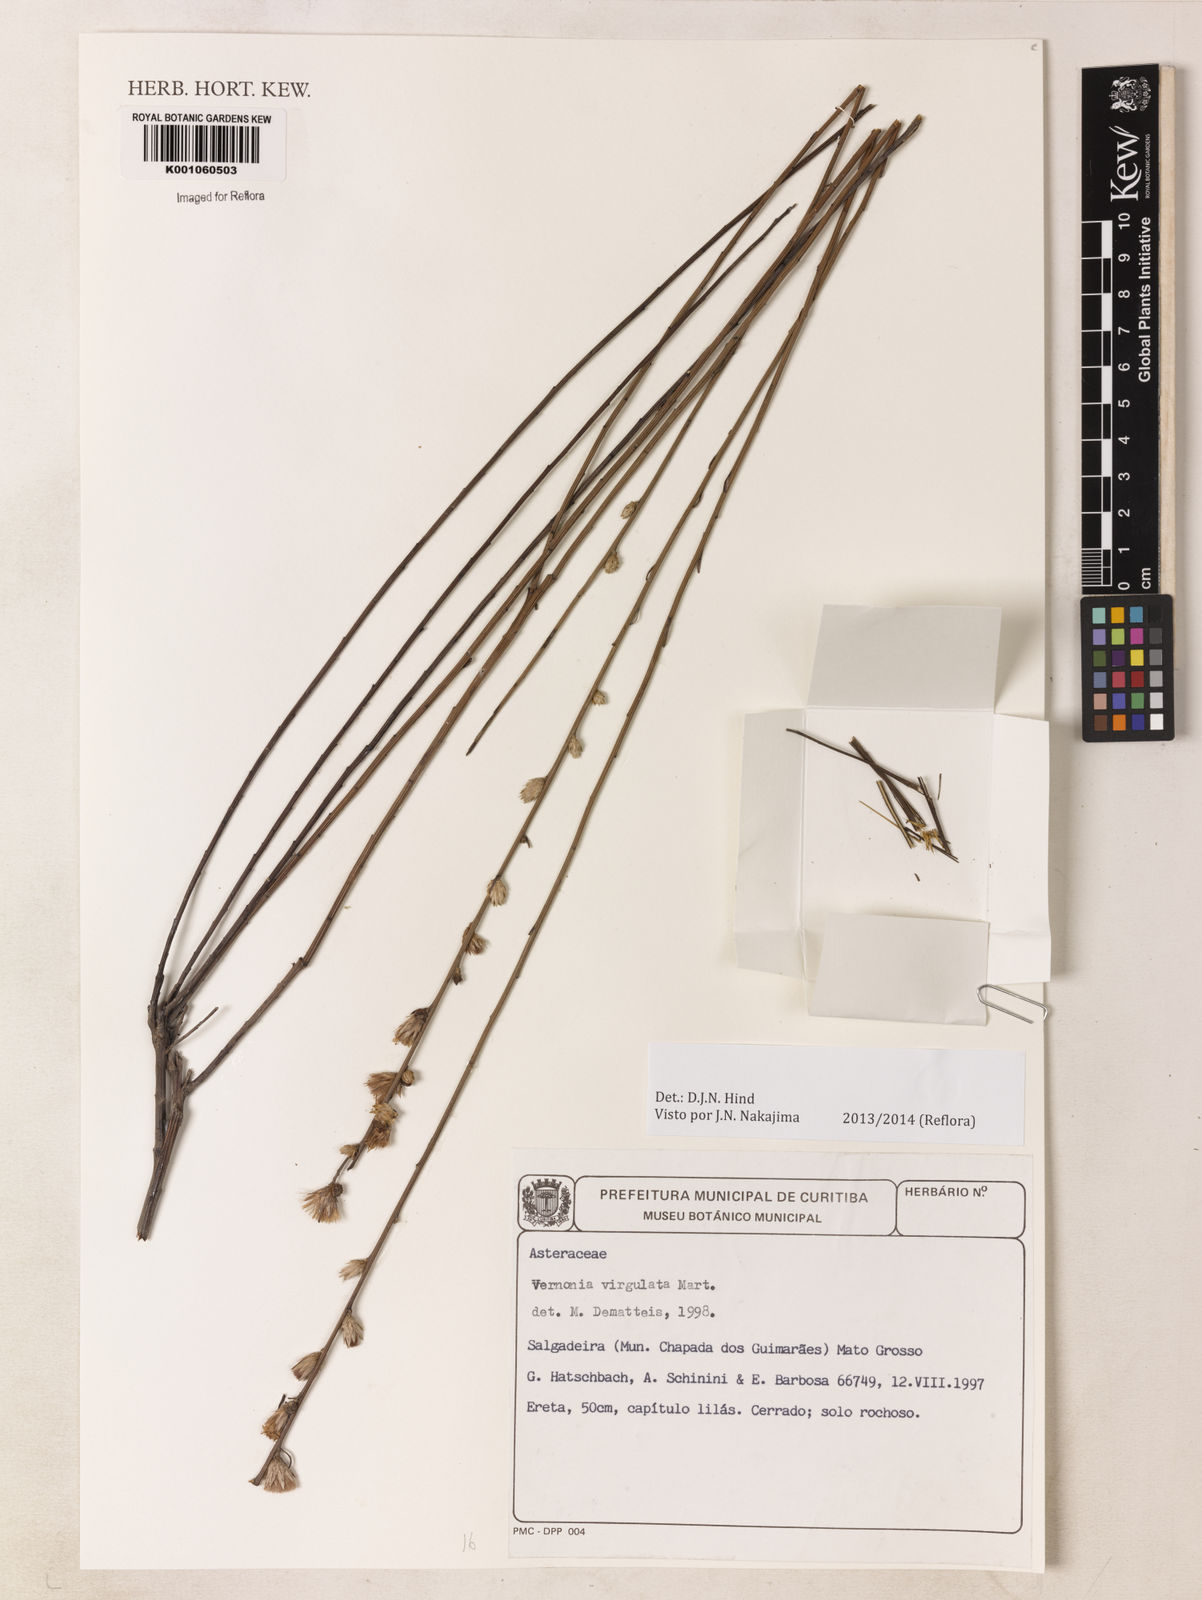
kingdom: Plantae
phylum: Tracheophyta
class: Magnoliopsida
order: Asterales
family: Asteraceae
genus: Lessingianthus
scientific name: Lessingianthus virgulatus
